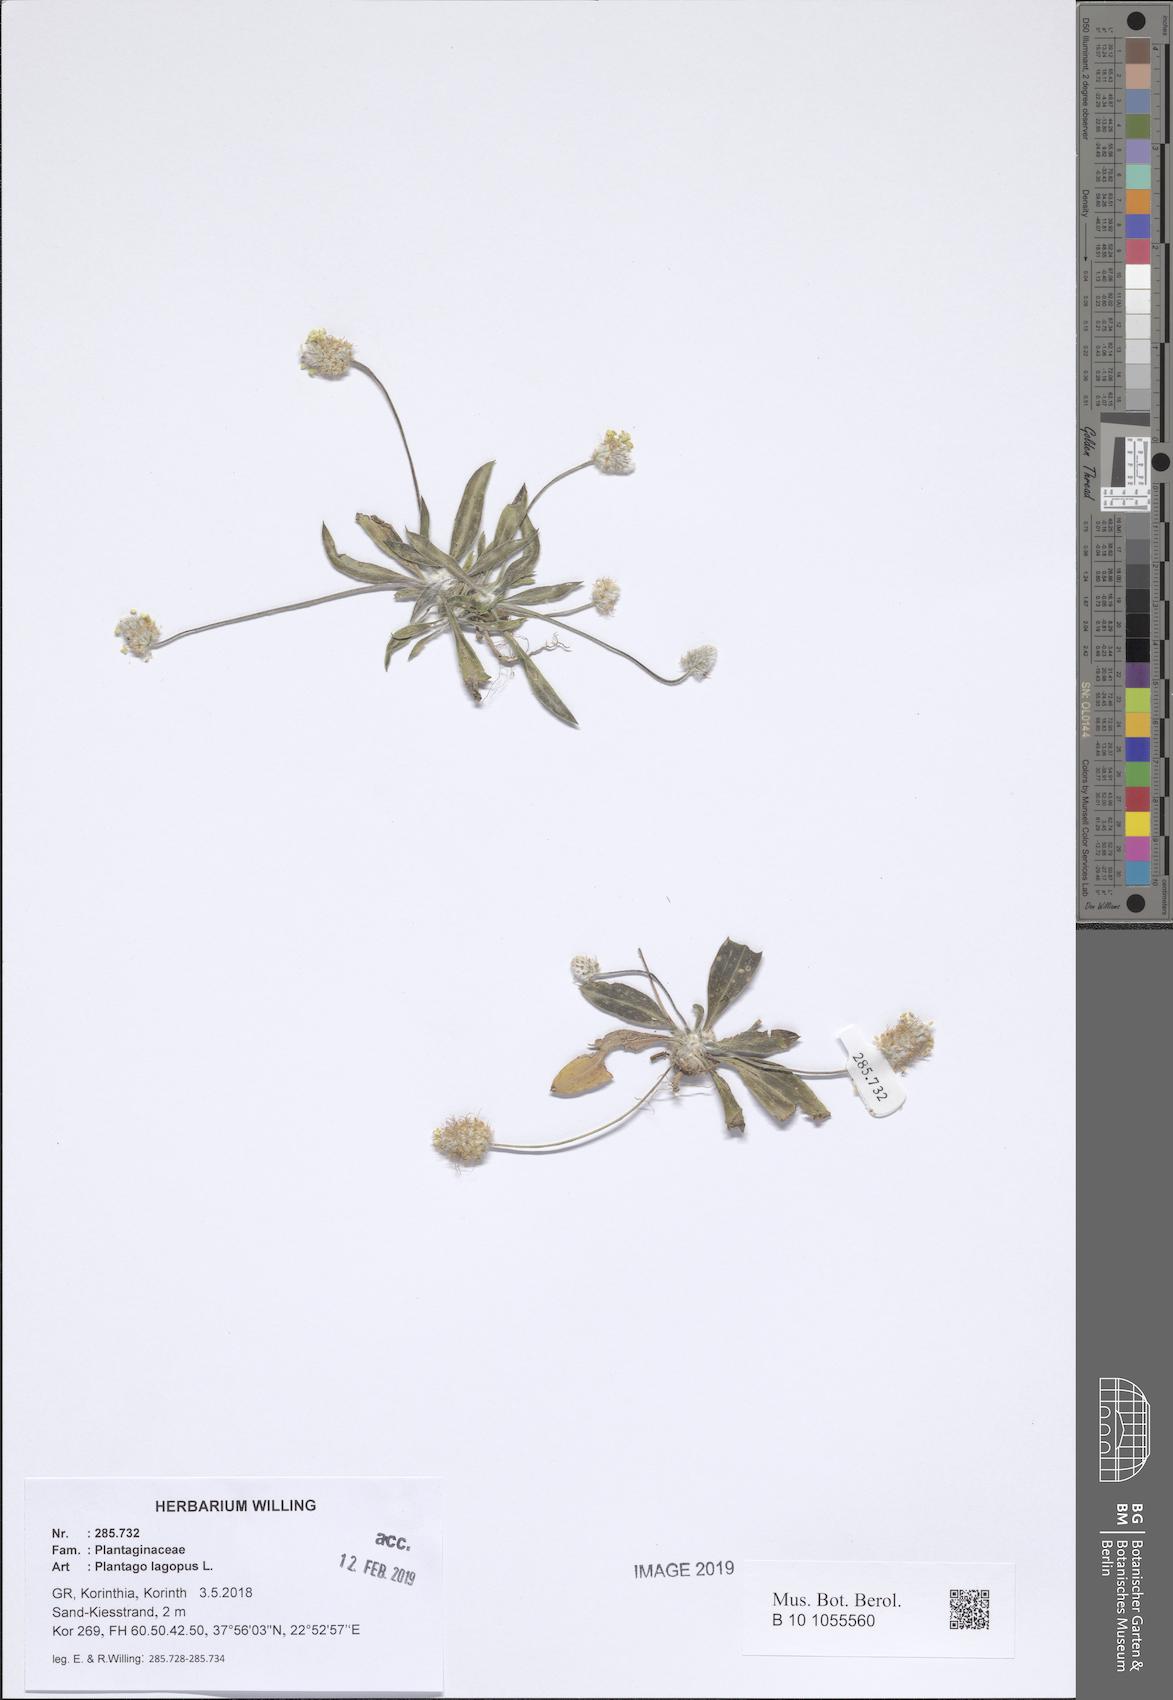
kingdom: Plantae
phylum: Tracheophyta
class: Magnoliopsida
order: Lamiales
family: Plantaginaceae
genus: Plantago
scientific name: Plantago lagopus
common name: Hare-foot plantain
